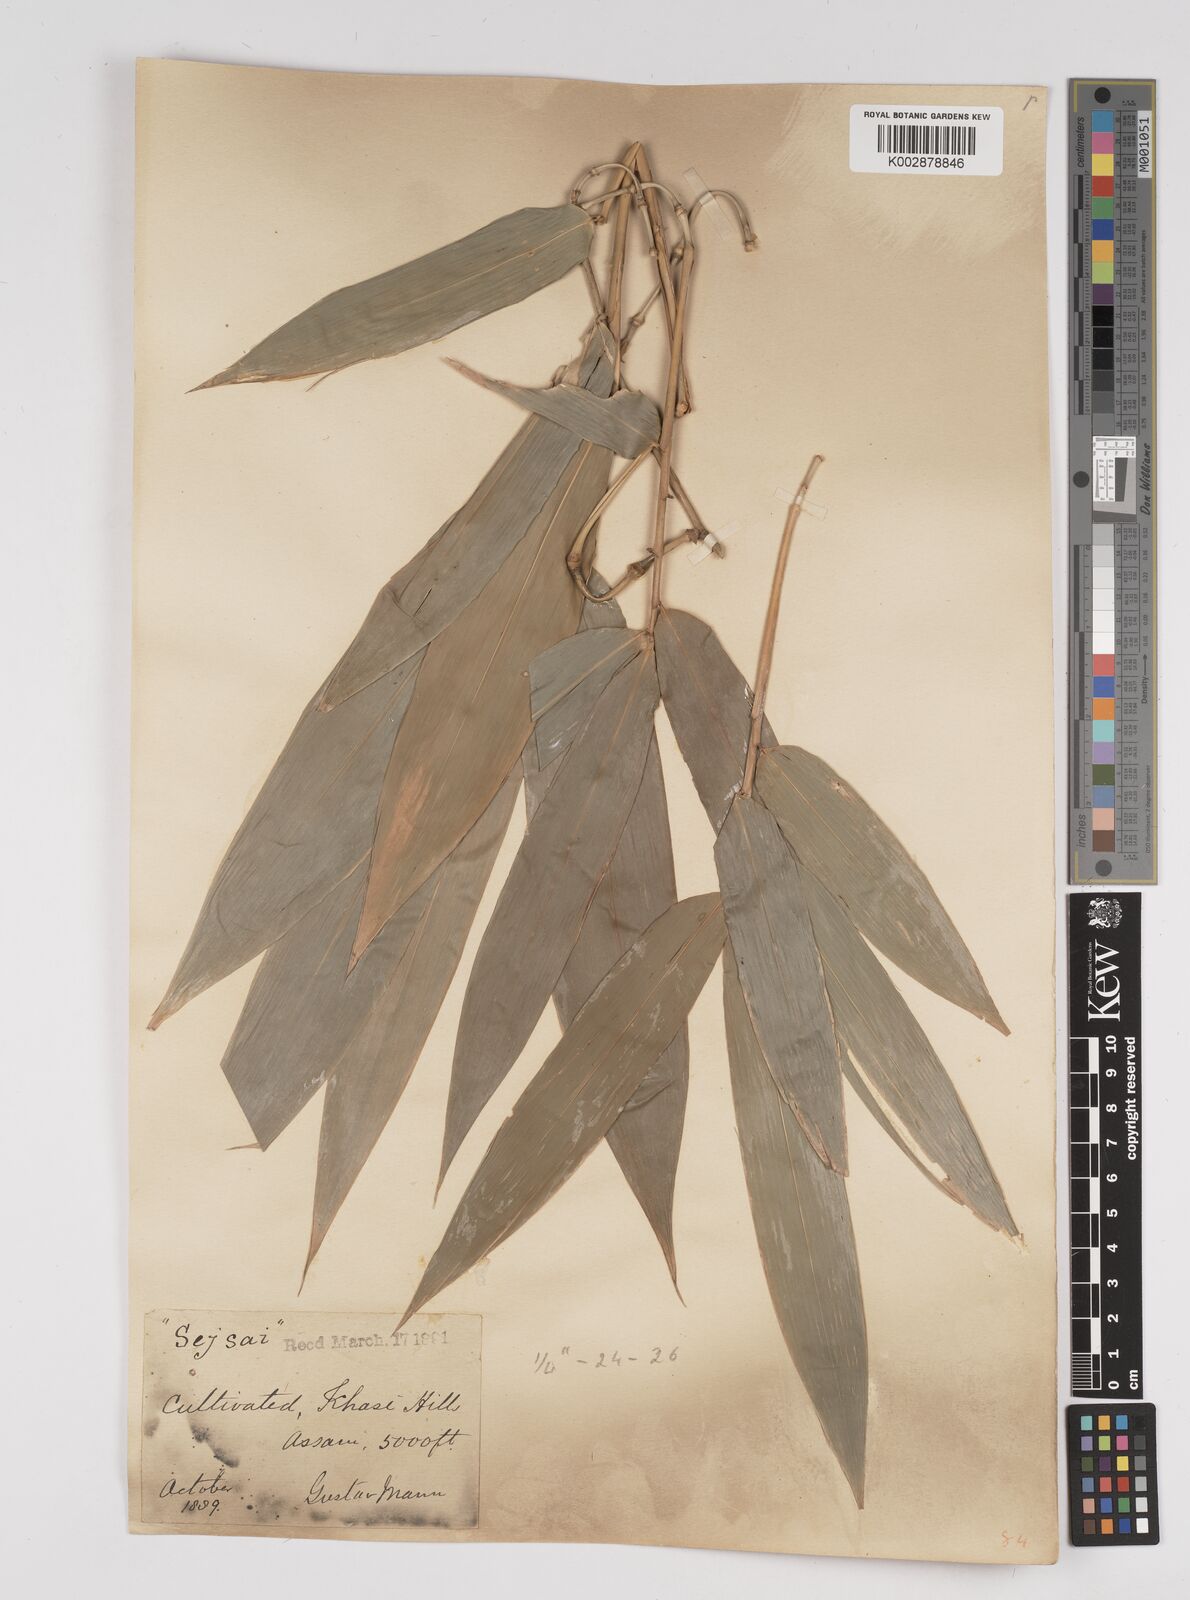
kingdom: Plantae
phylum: Tracheophyta
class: Liliopsida
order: Poales
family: Poaceae
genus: Dendrocalamus
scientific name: Dendrocalamus hookeri
